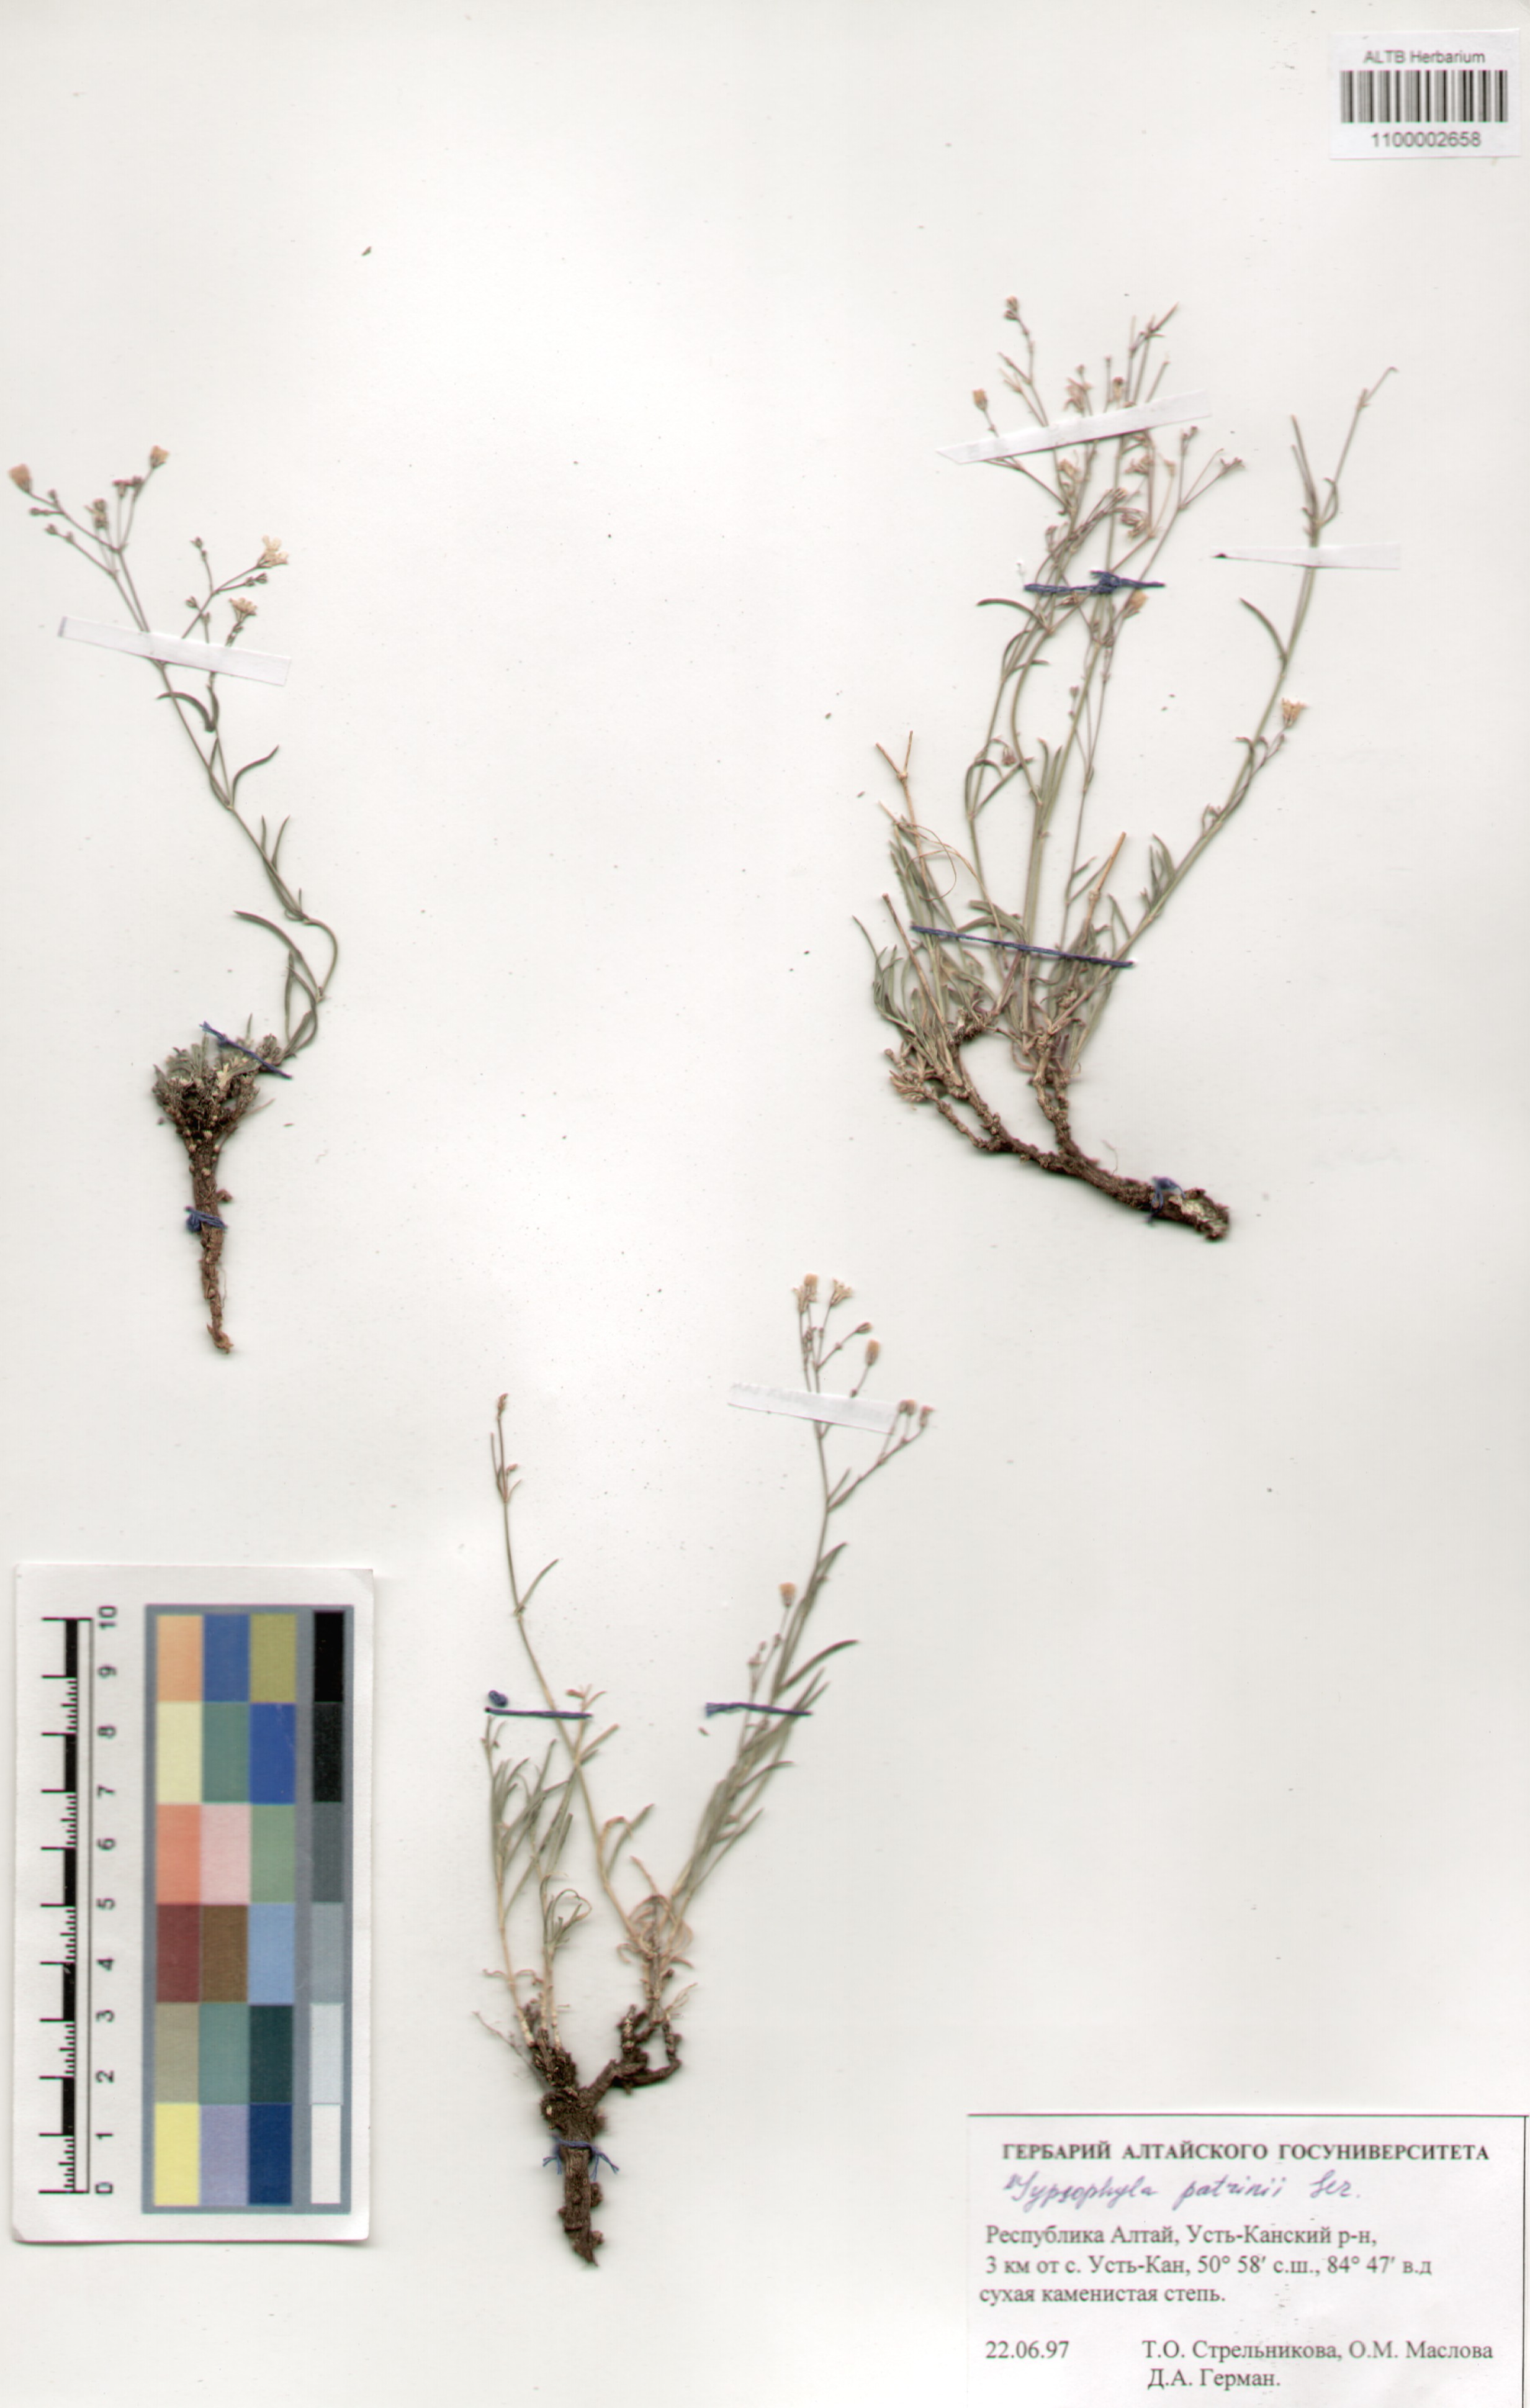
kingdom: Plantae
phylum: Tracheophyta
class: Magnoliopsida
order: Caryophyllales
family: Caryophyllaceae
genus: Gypsophila
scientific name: Gypsophila patrinii
